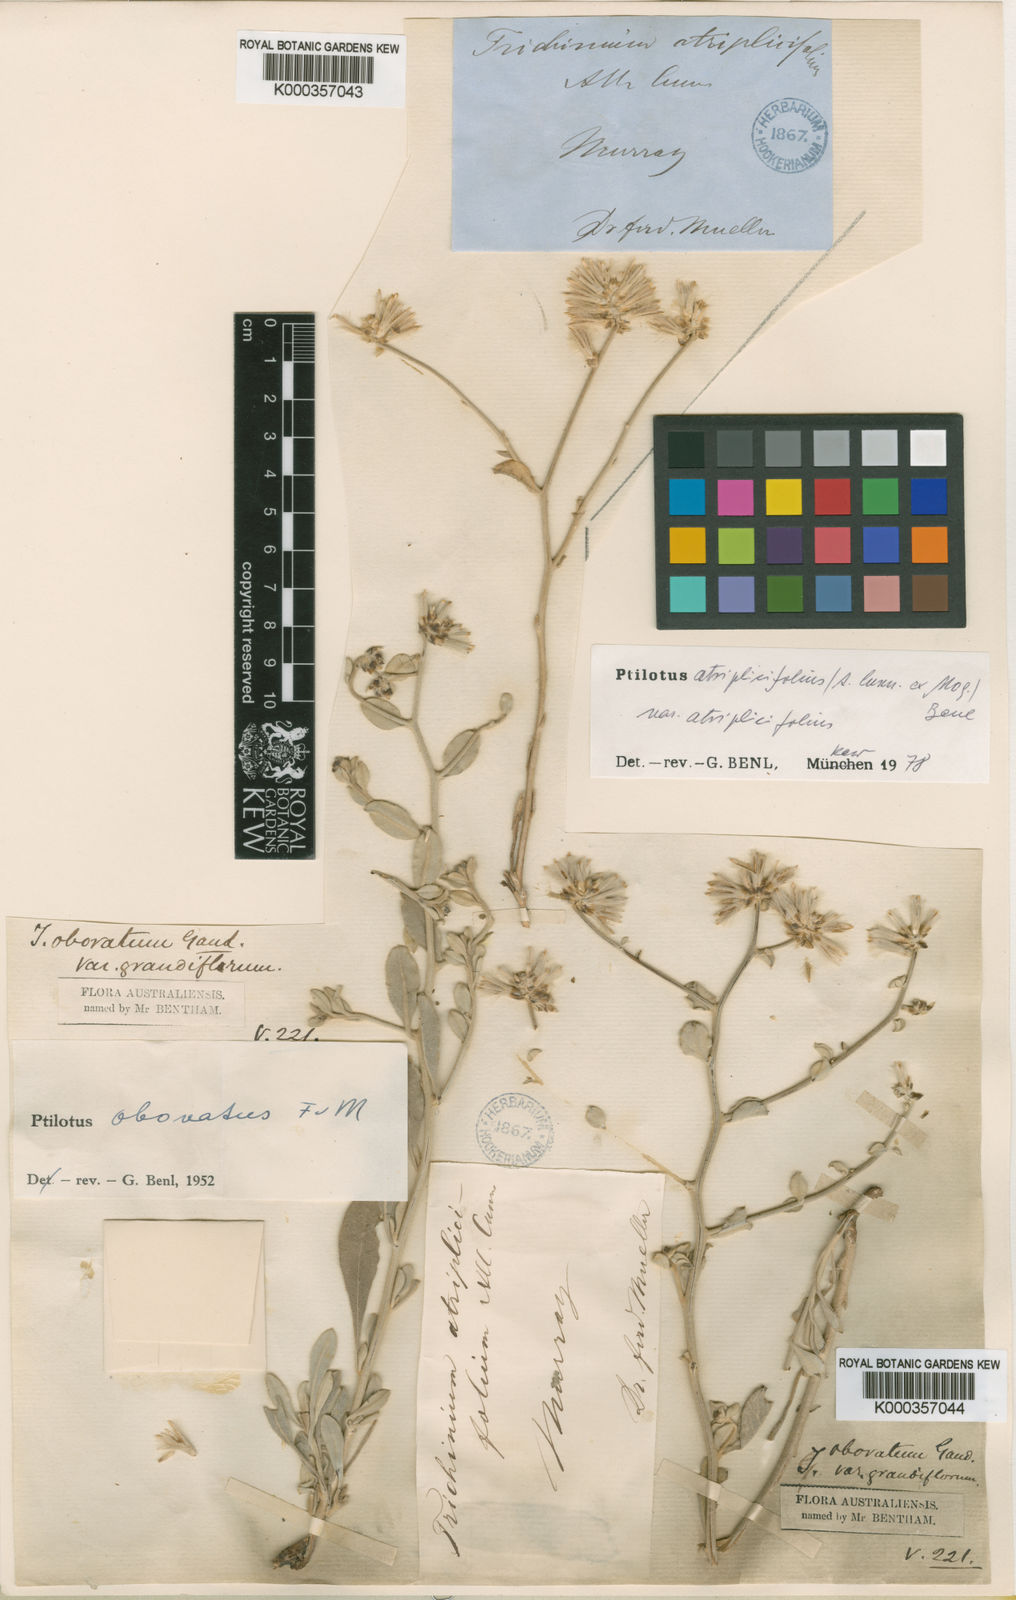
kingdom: Plantae
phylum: Tracheophyta
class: Magnoliopsida
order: Caryophyllales
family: Amaranthaceae
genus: Ptilotus
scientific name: Ptilotus
